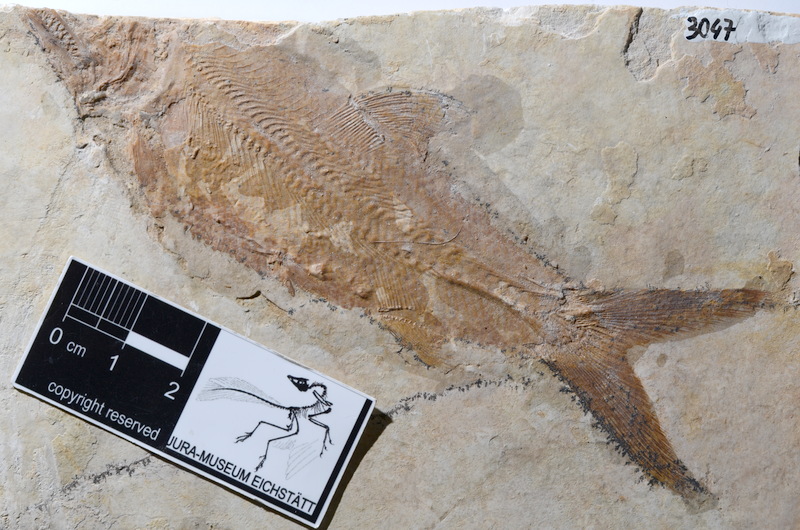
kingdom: Animalia
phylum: Chordata
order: Amiiformes
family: Caturidae
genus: Caturus
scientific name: Caturus furcatus
